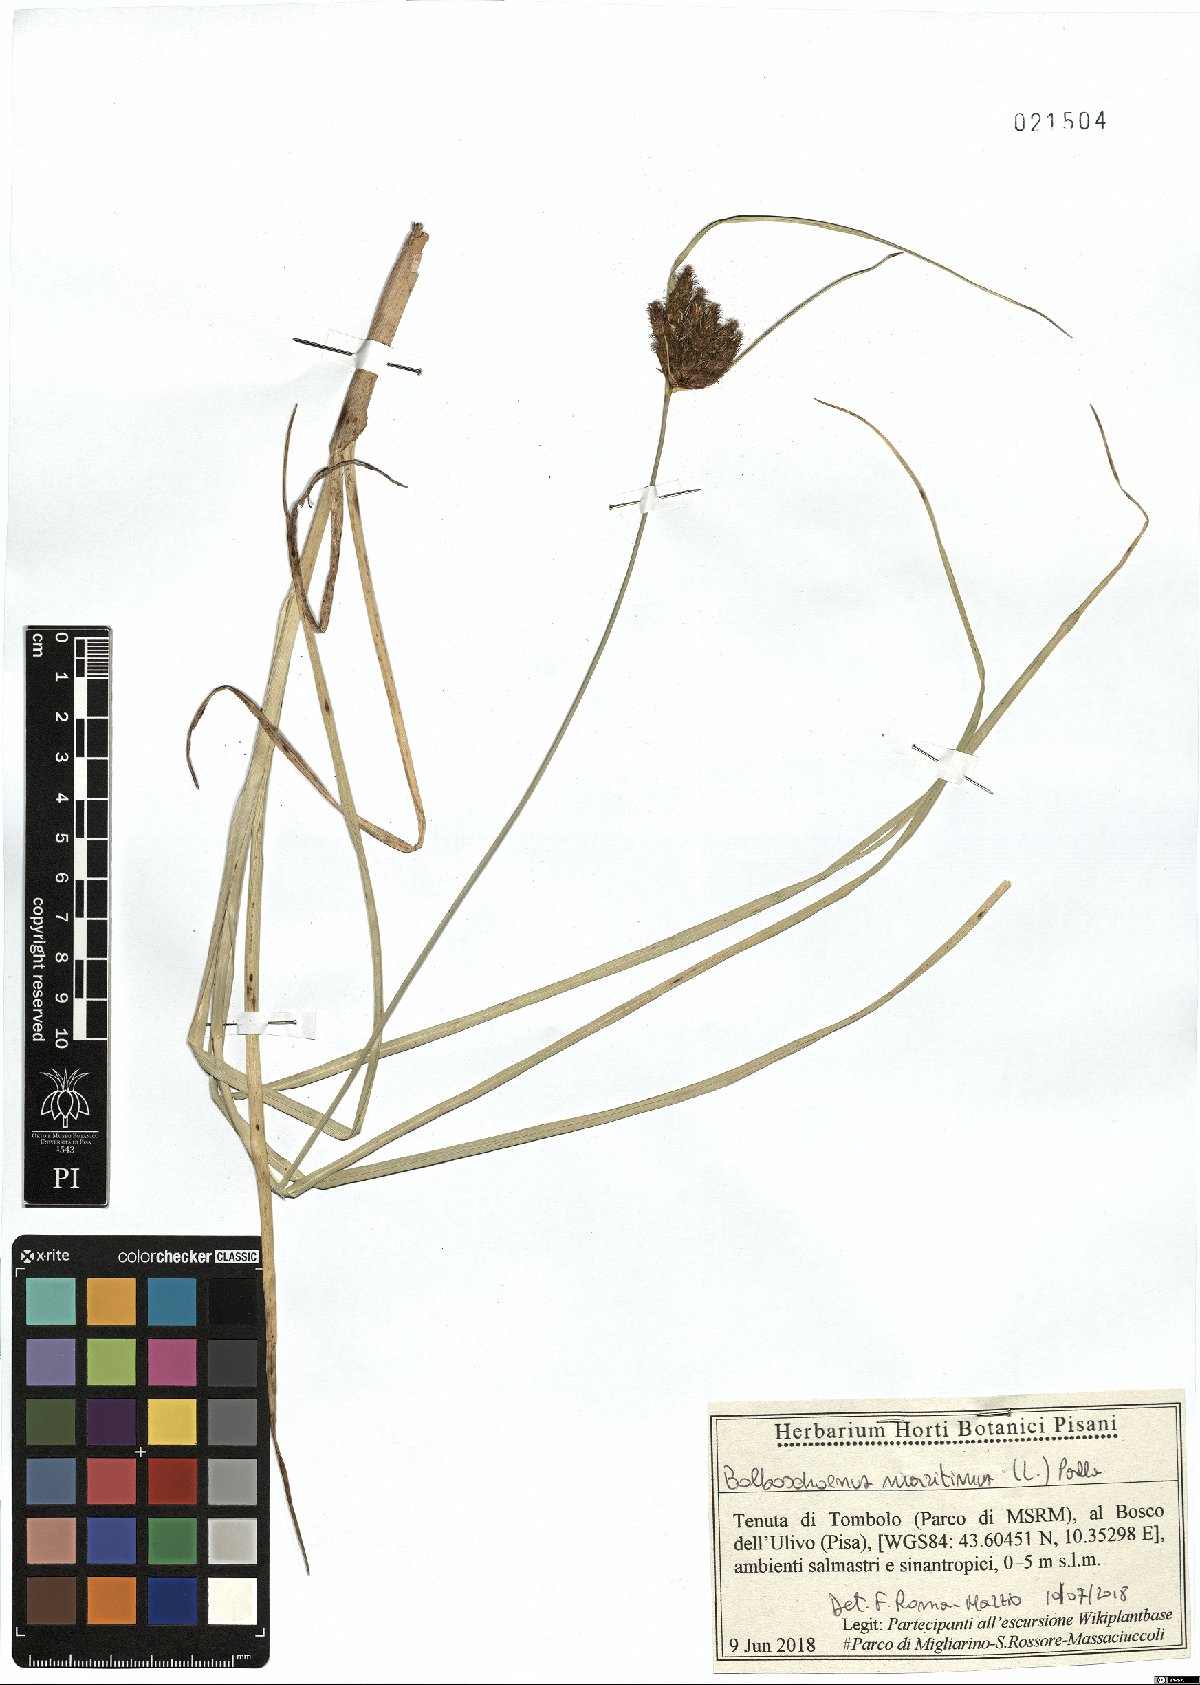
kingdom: Plantae
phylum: Tracheophyta
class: Liliopsida
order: Poales
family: Cyperaceae
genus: Bolboschoenus
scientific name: Bolboschoenus maritimus
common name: Sea club-rush
